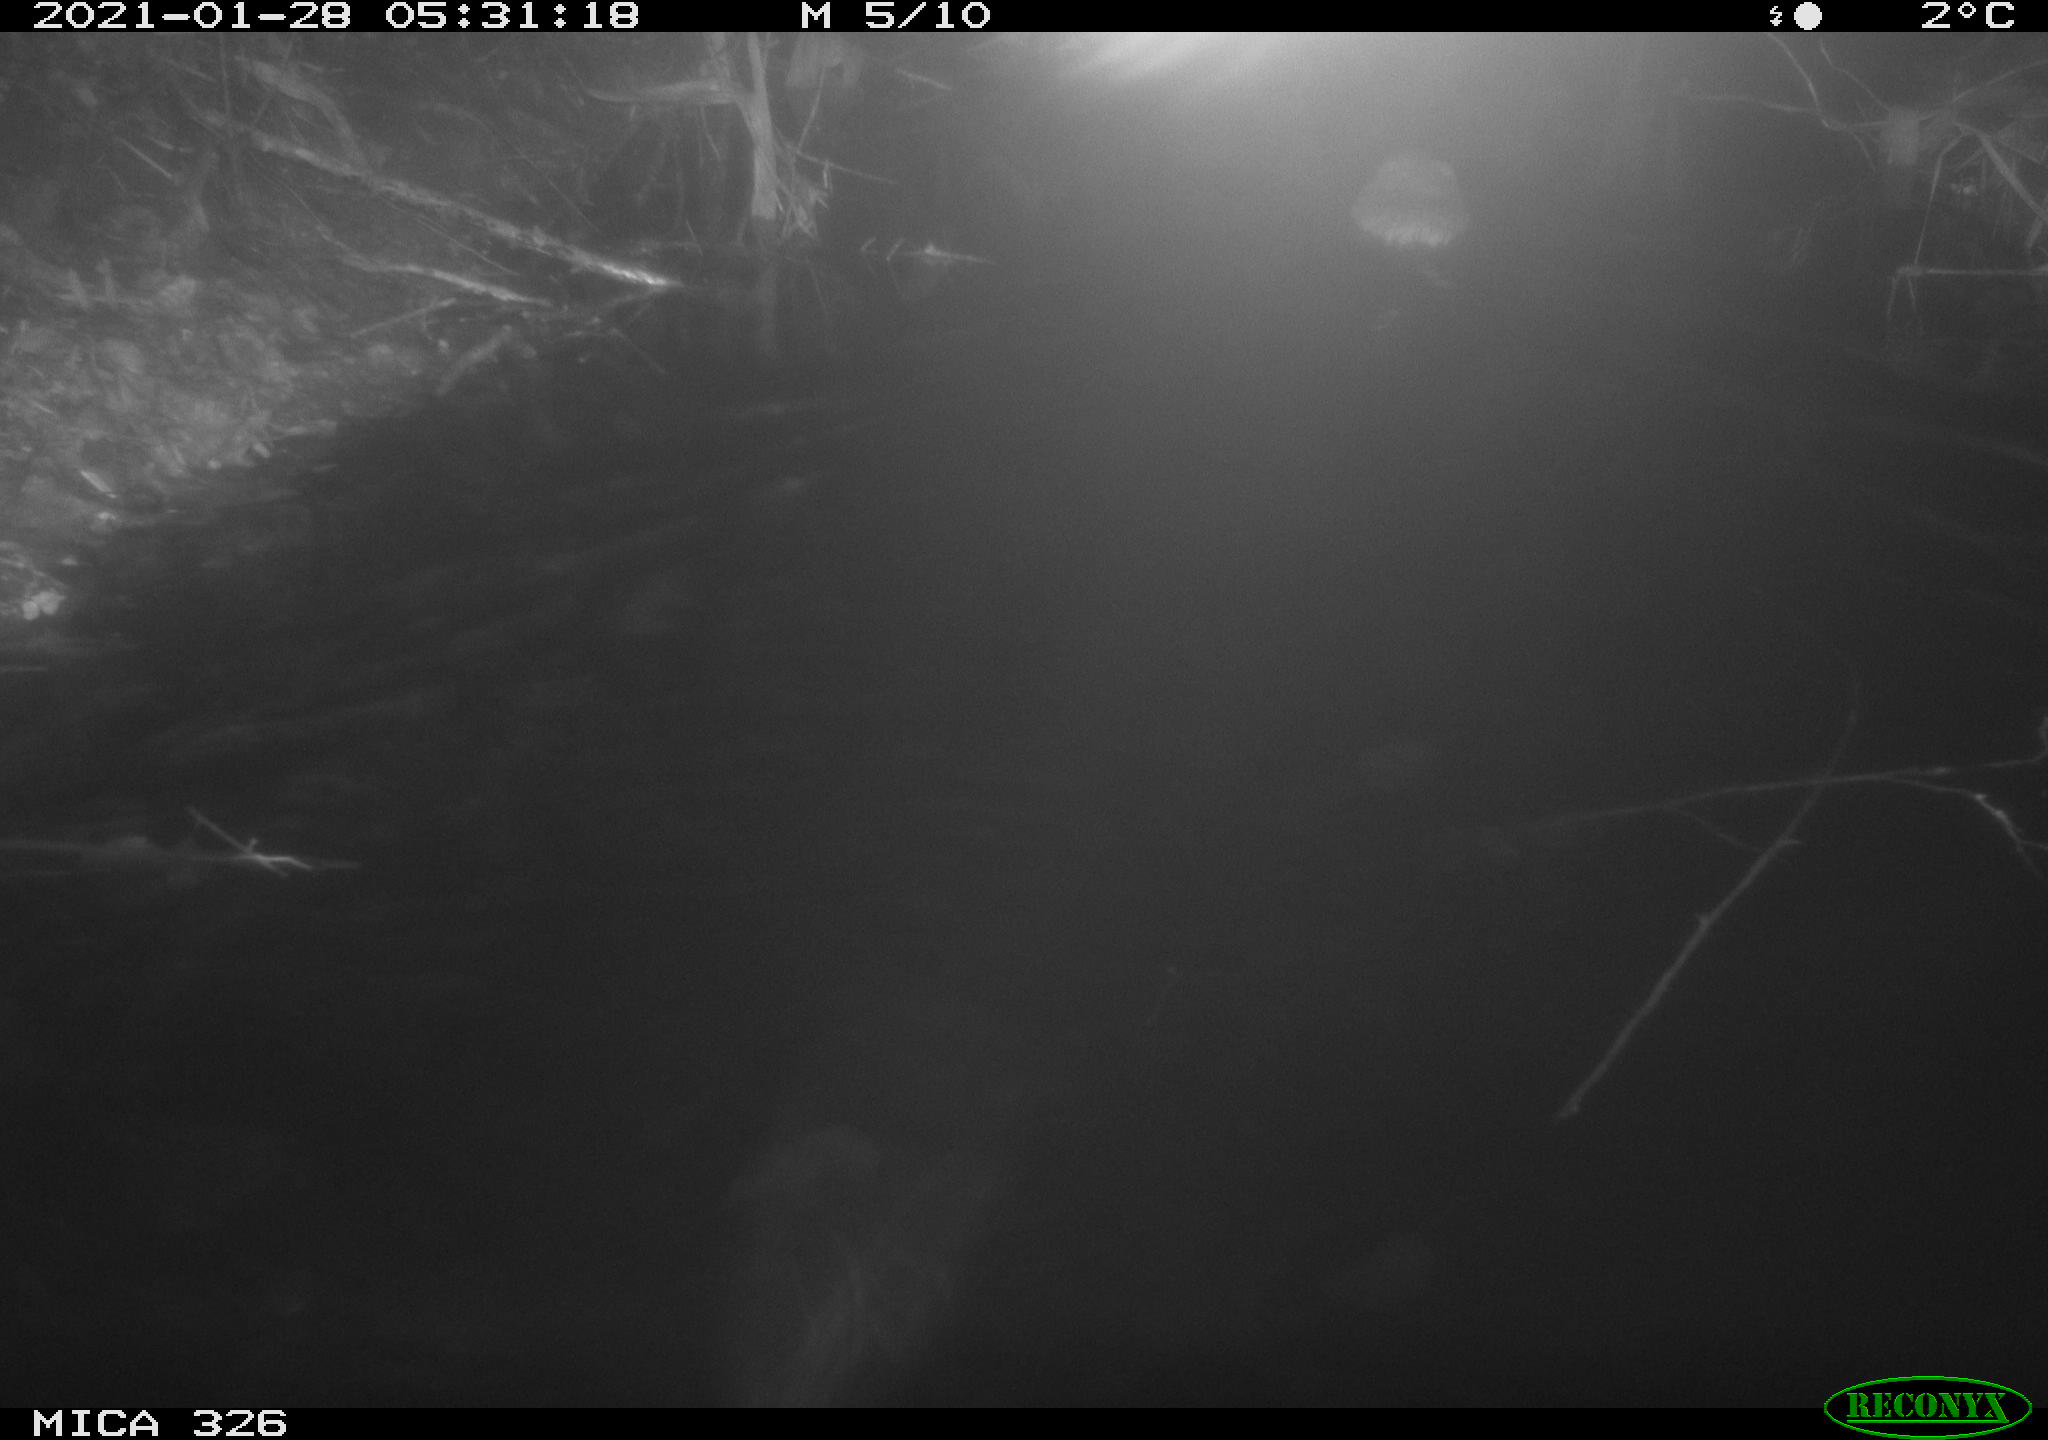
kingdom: Animalia
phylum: Chordata
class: Mammalia
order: Rodentia
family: Cricetidae
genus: Ondatra
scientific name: Ondatra zibethicus
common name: Muskrat
